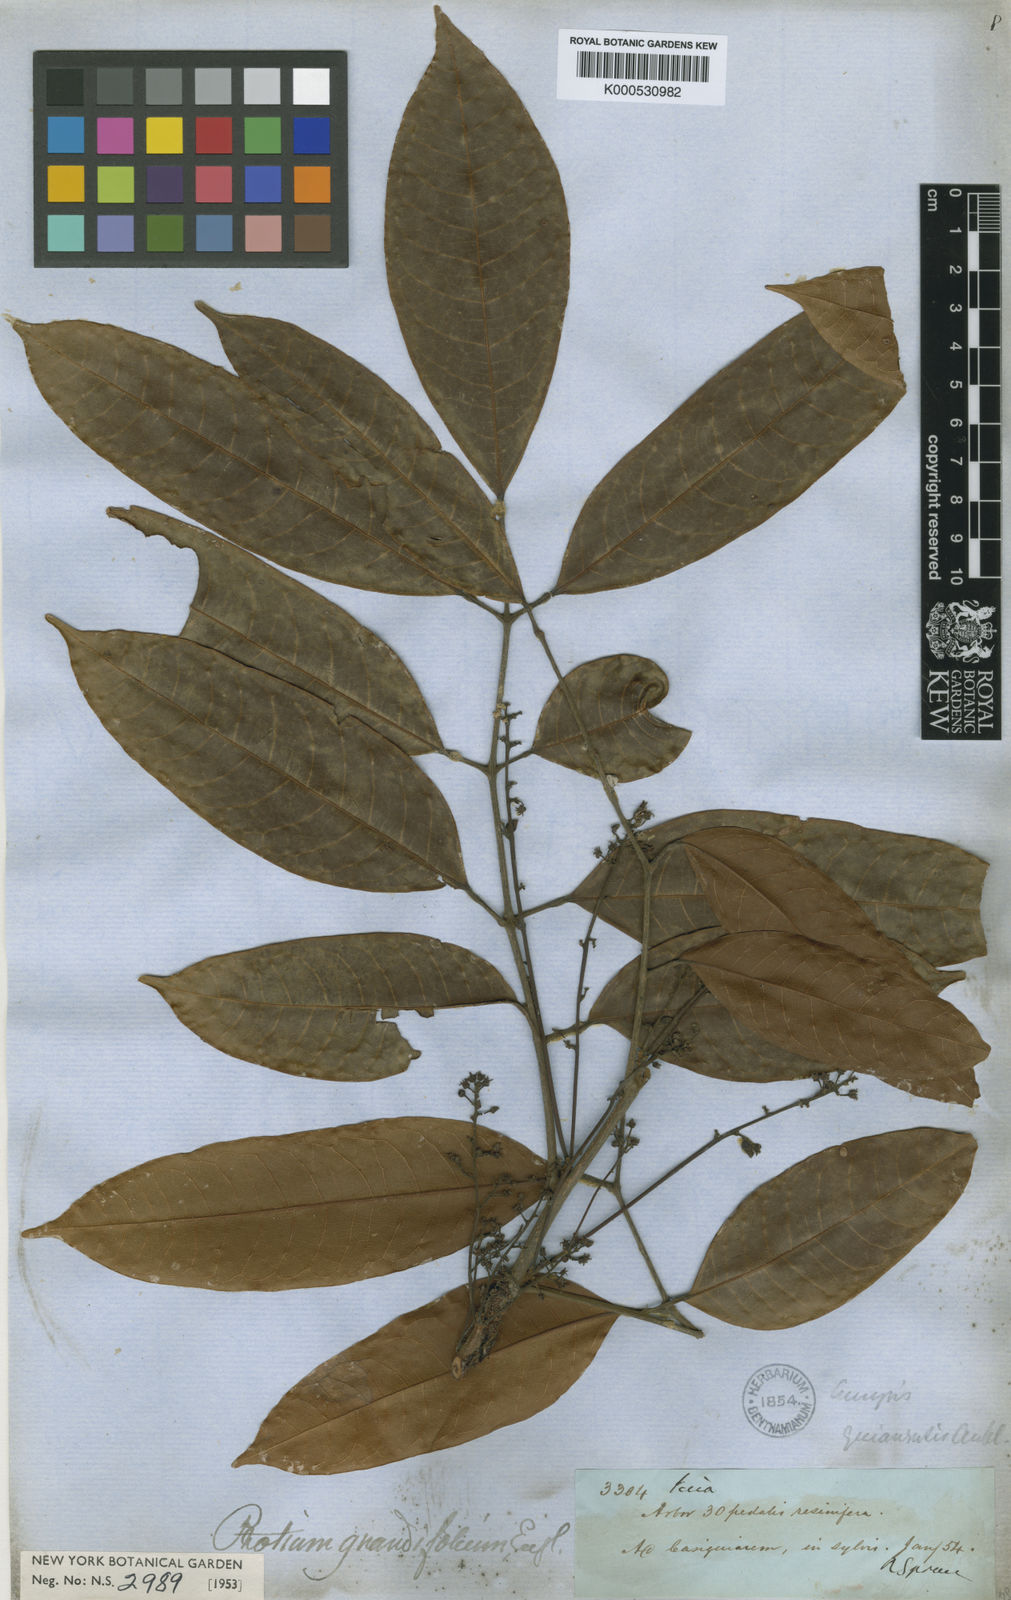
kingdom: Plantae
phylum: Tracheophyta
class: Magnoliopsida
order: Sapindales
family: Burseraceae
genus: Protium
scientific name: Protium grandifolium
